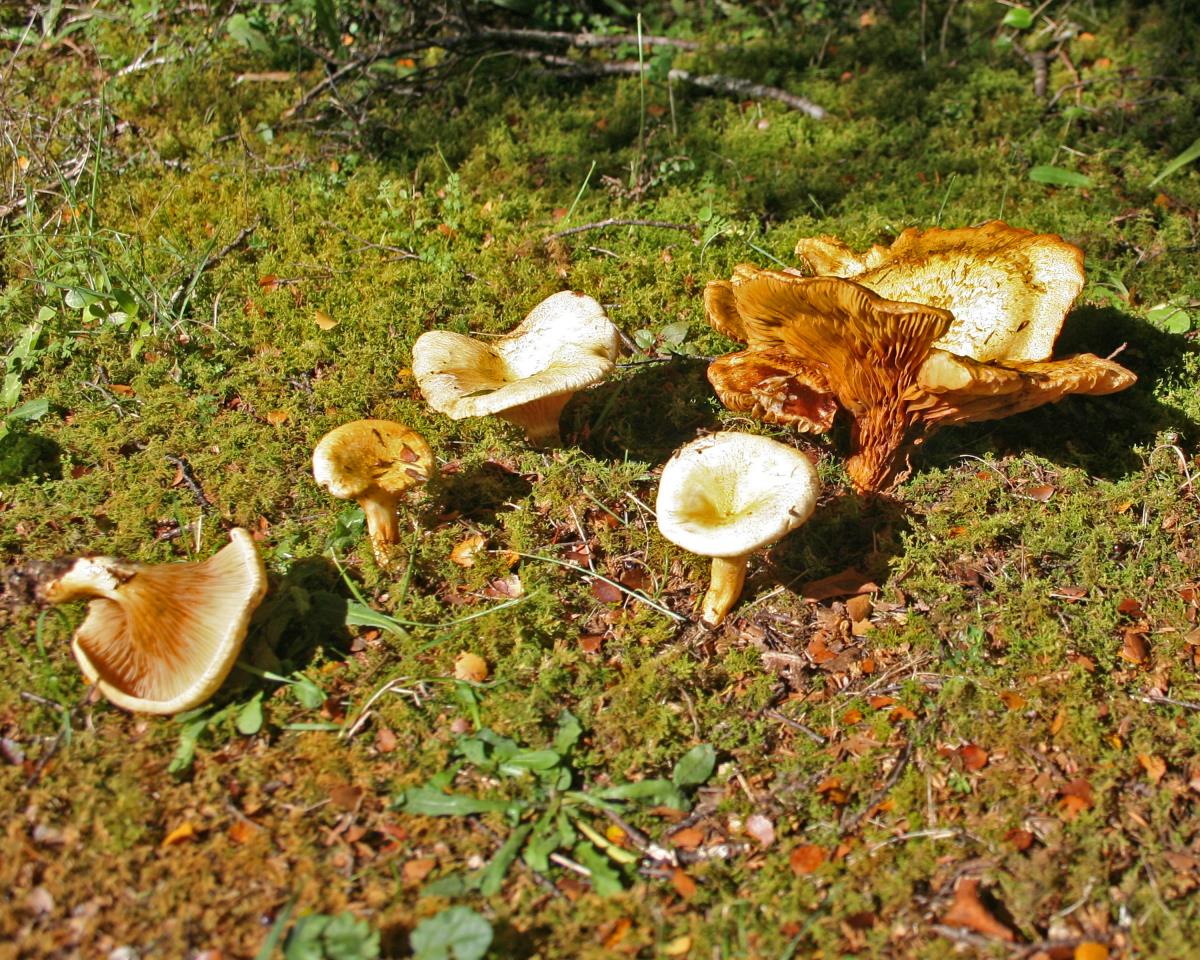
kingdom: Fungi
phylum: Basidiomycota
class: Agaricomycetes
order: Boletales
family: Serpulaceae
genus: Austropaxillus
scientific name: Austropaxillus mcnabbii
